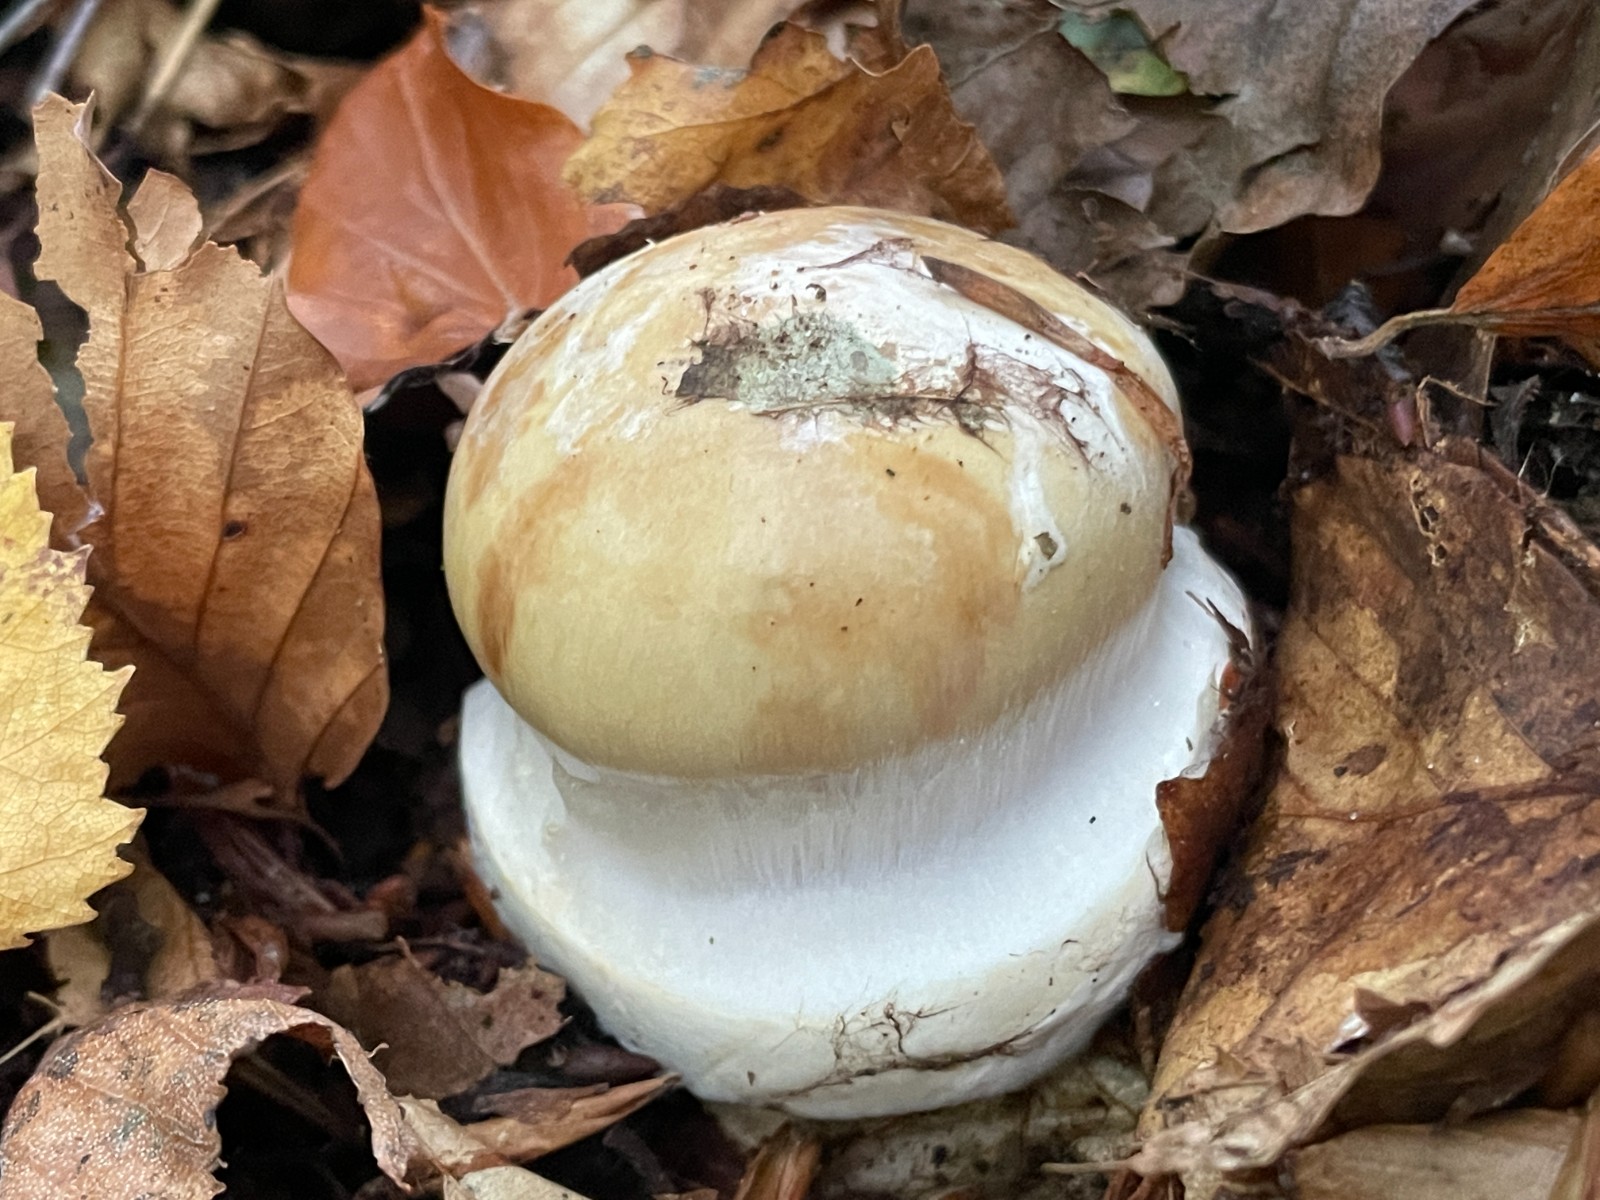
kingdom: Fungi
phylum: Basidiomycota
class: Agaricomycetes
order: Agaricales
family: Cortinariaceae
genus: Cortinarius
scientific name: Cortinarius anserinus
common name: bøge-slørhat
